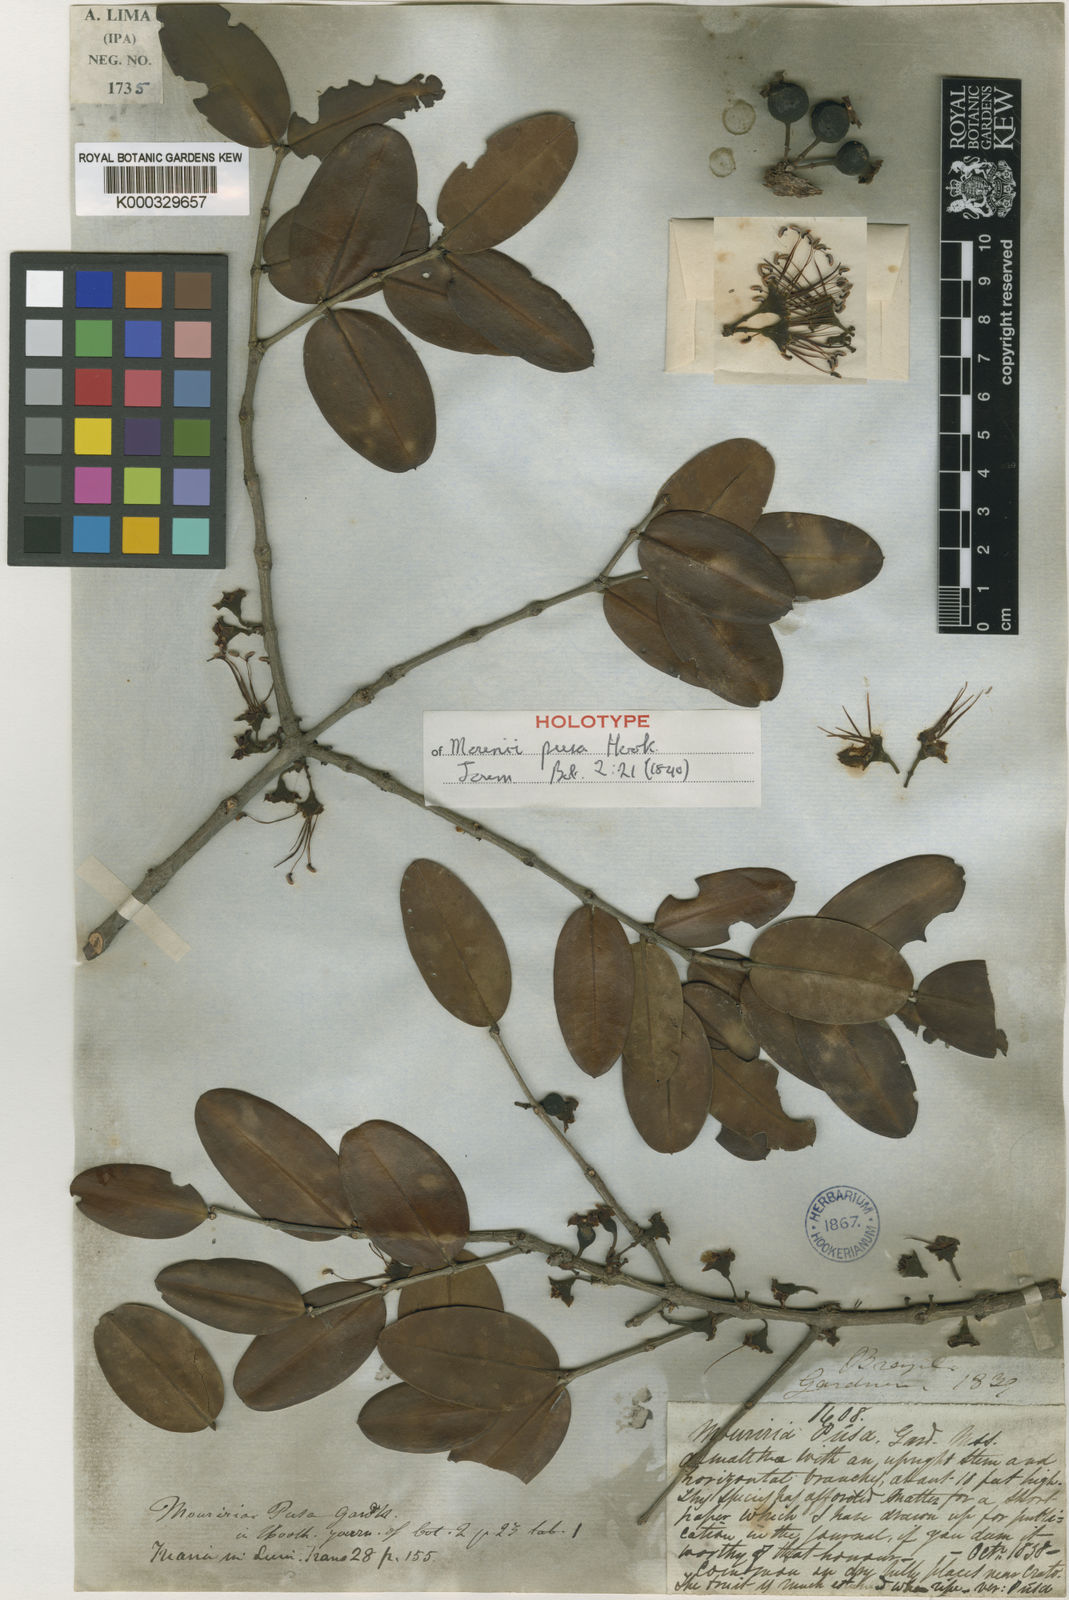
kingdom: Plantae
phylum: Tracheophyta
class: Magnoliopsida
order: Myrtales
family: Melastomataceae
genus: Mouriri
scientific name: Mouriri pusa
